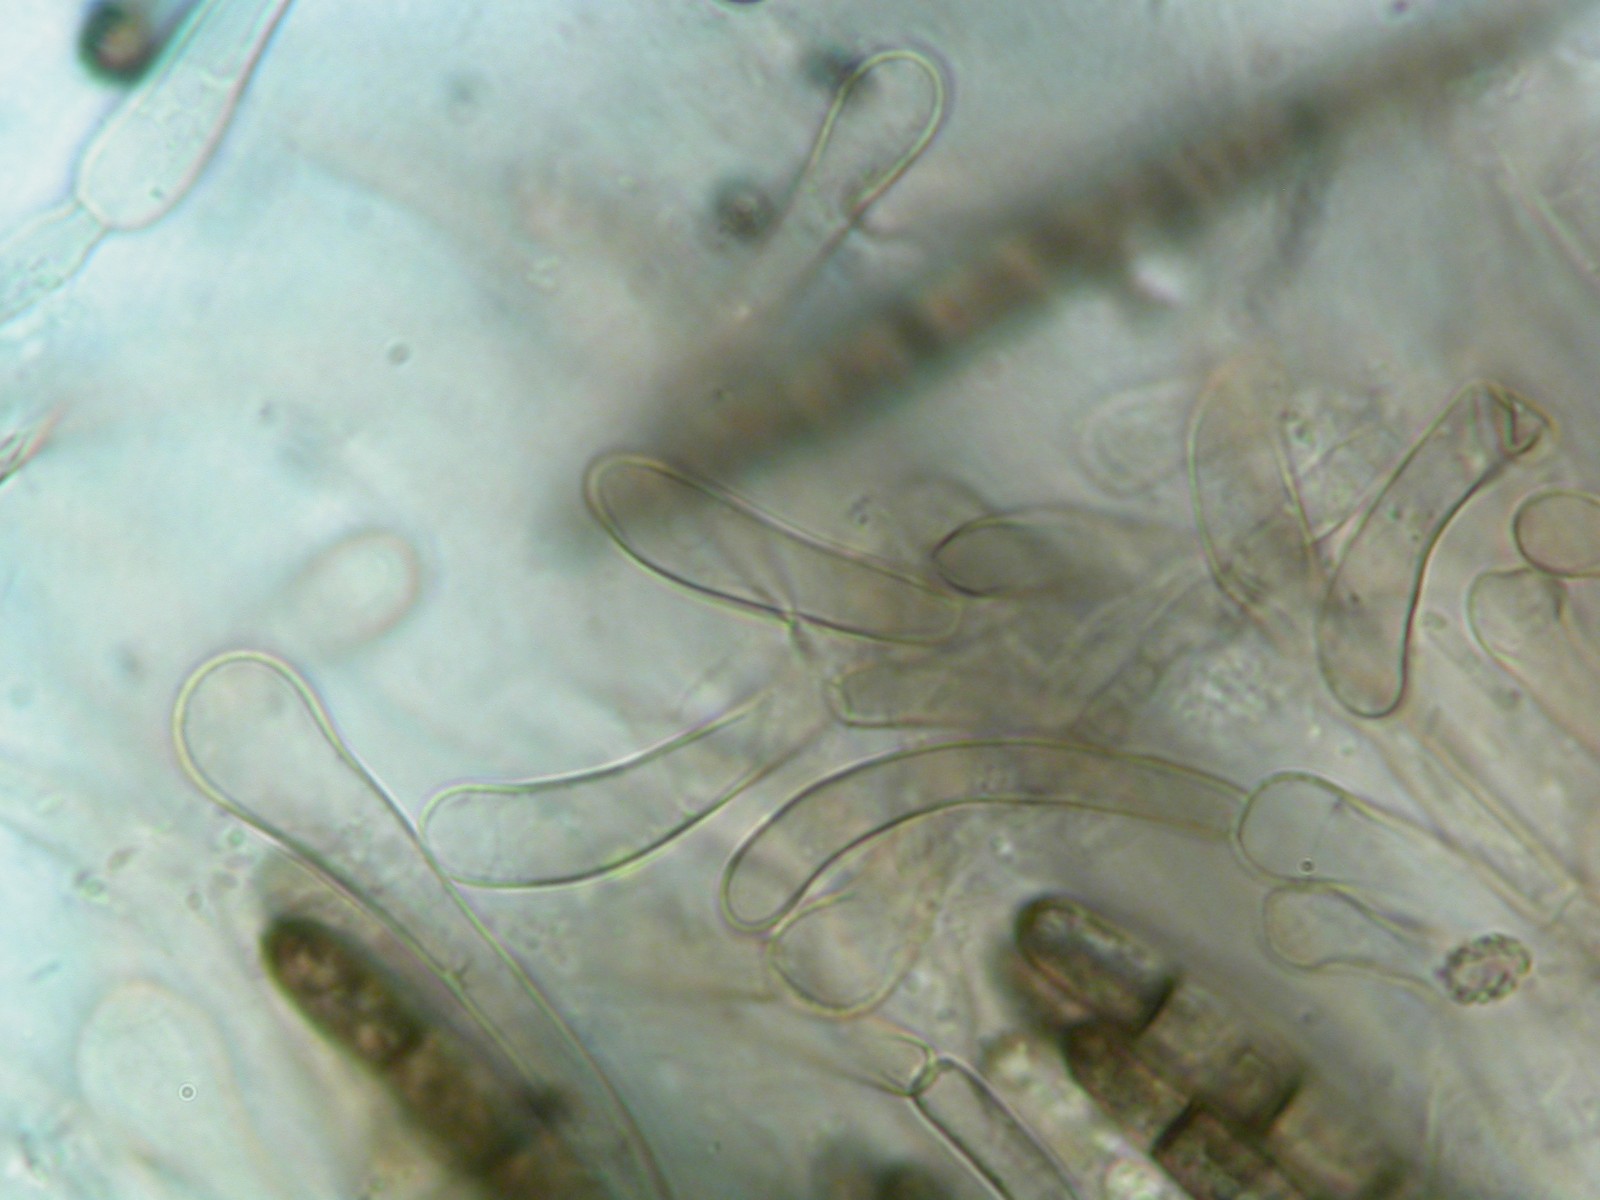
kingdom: Fungi
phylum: Ascomycota
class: Geoglossomycetes
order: Geoglossales
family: Geoglossaceae
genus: Geoglossum
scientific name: Geoglossum umbratile
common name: slank jordtunge
